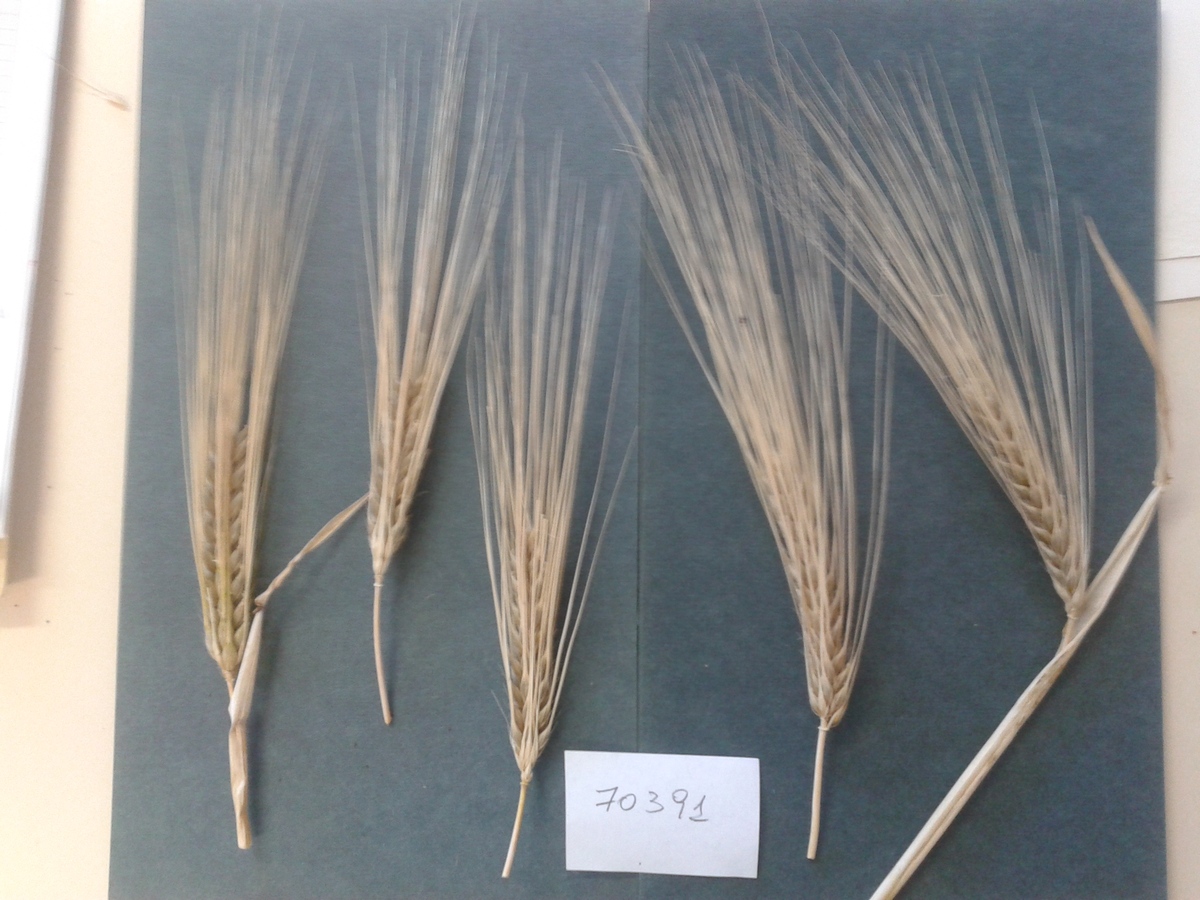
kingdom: Plantae
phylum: Tracheophyta
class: Liliopsida
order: Poales
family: Poaceae
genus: Hordeum
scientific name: Hordeum vulgare
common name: Barley
